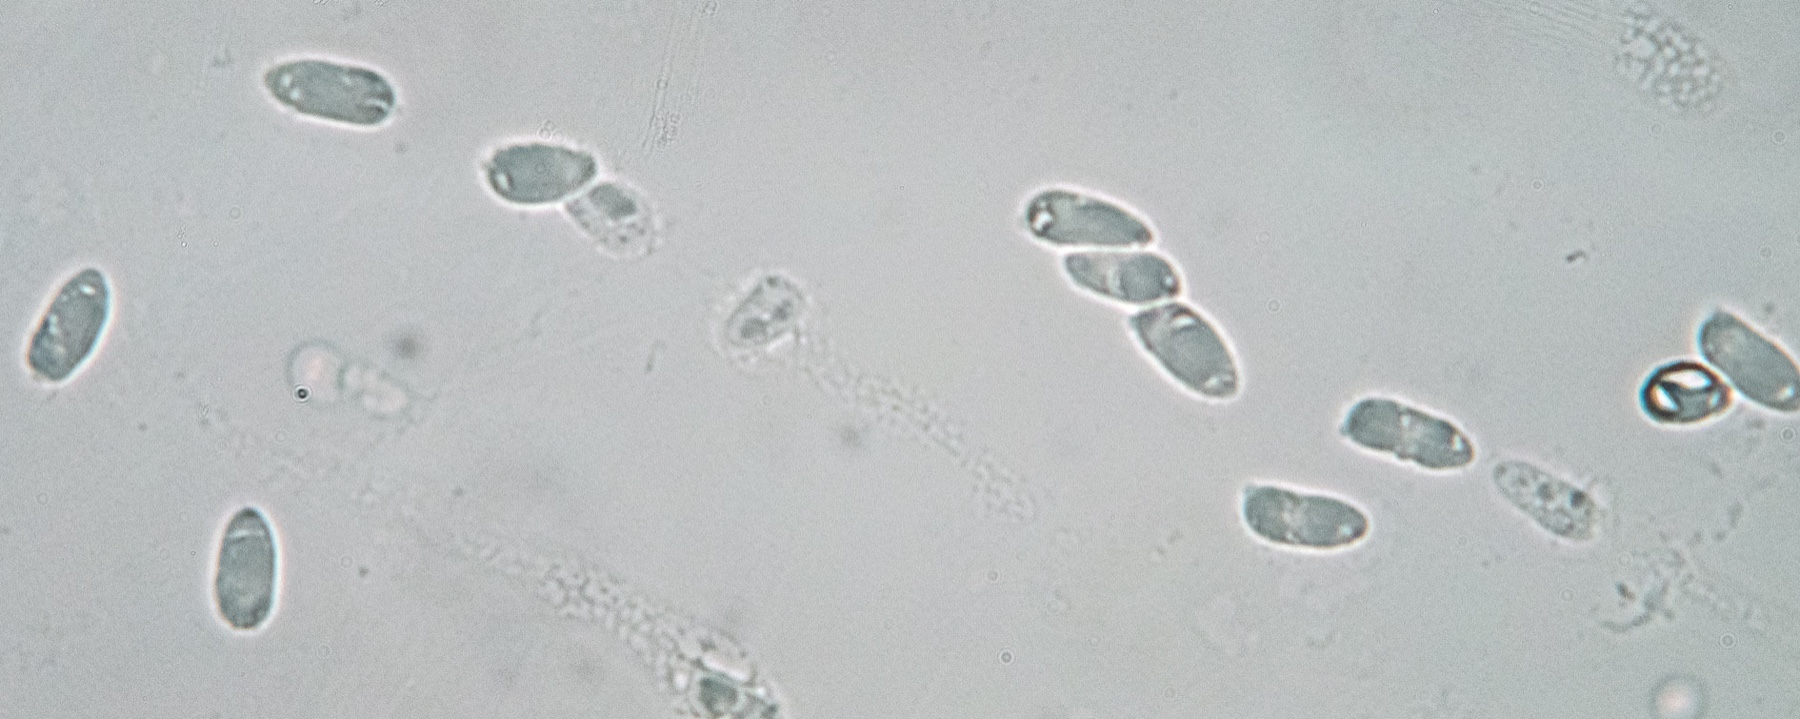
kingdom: Fungi
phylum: Basidiomycota
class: Agaricomycetes
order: Agaricales
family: Typhulaceae
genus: Typhula
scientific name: Typhula sclerotioides
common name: sortknoldet trådkølle
